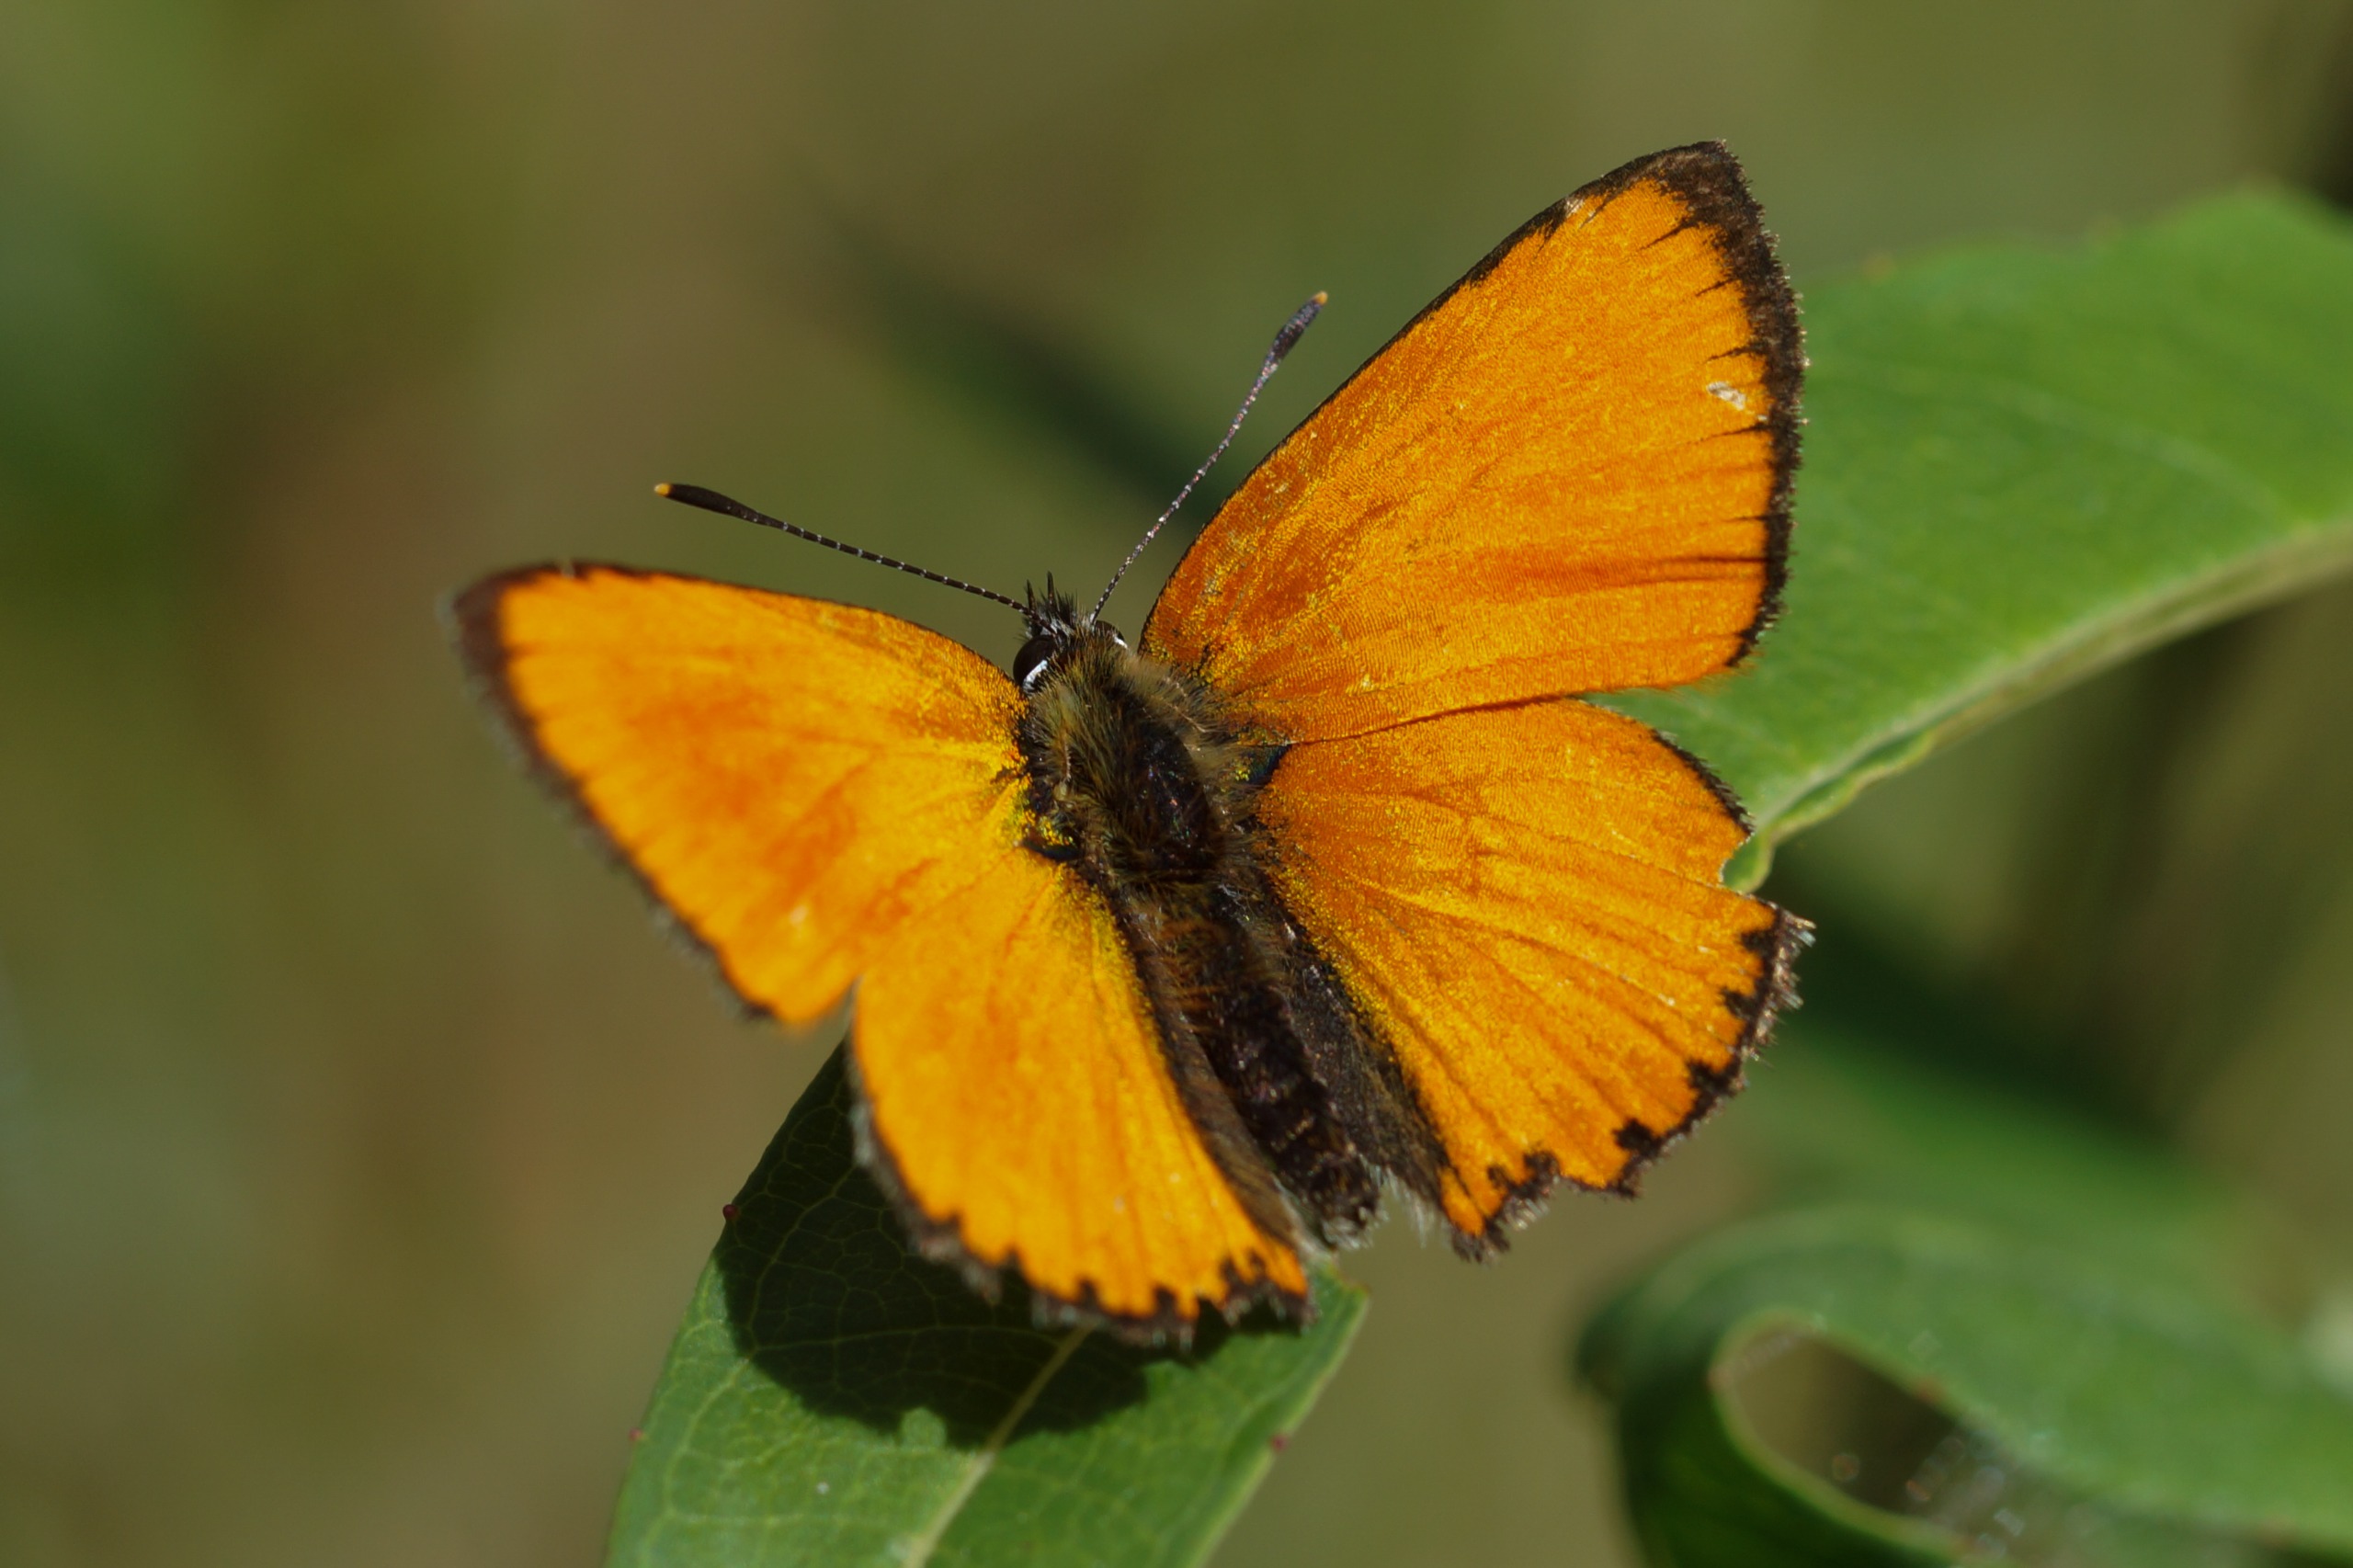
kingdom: Animalia
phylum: Arthropoda
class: Insecta
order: Lepidoptera
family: Lycaenidae
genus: Lycaena
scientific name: Lycaena virgaureae
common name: Dukatsommerfugl
